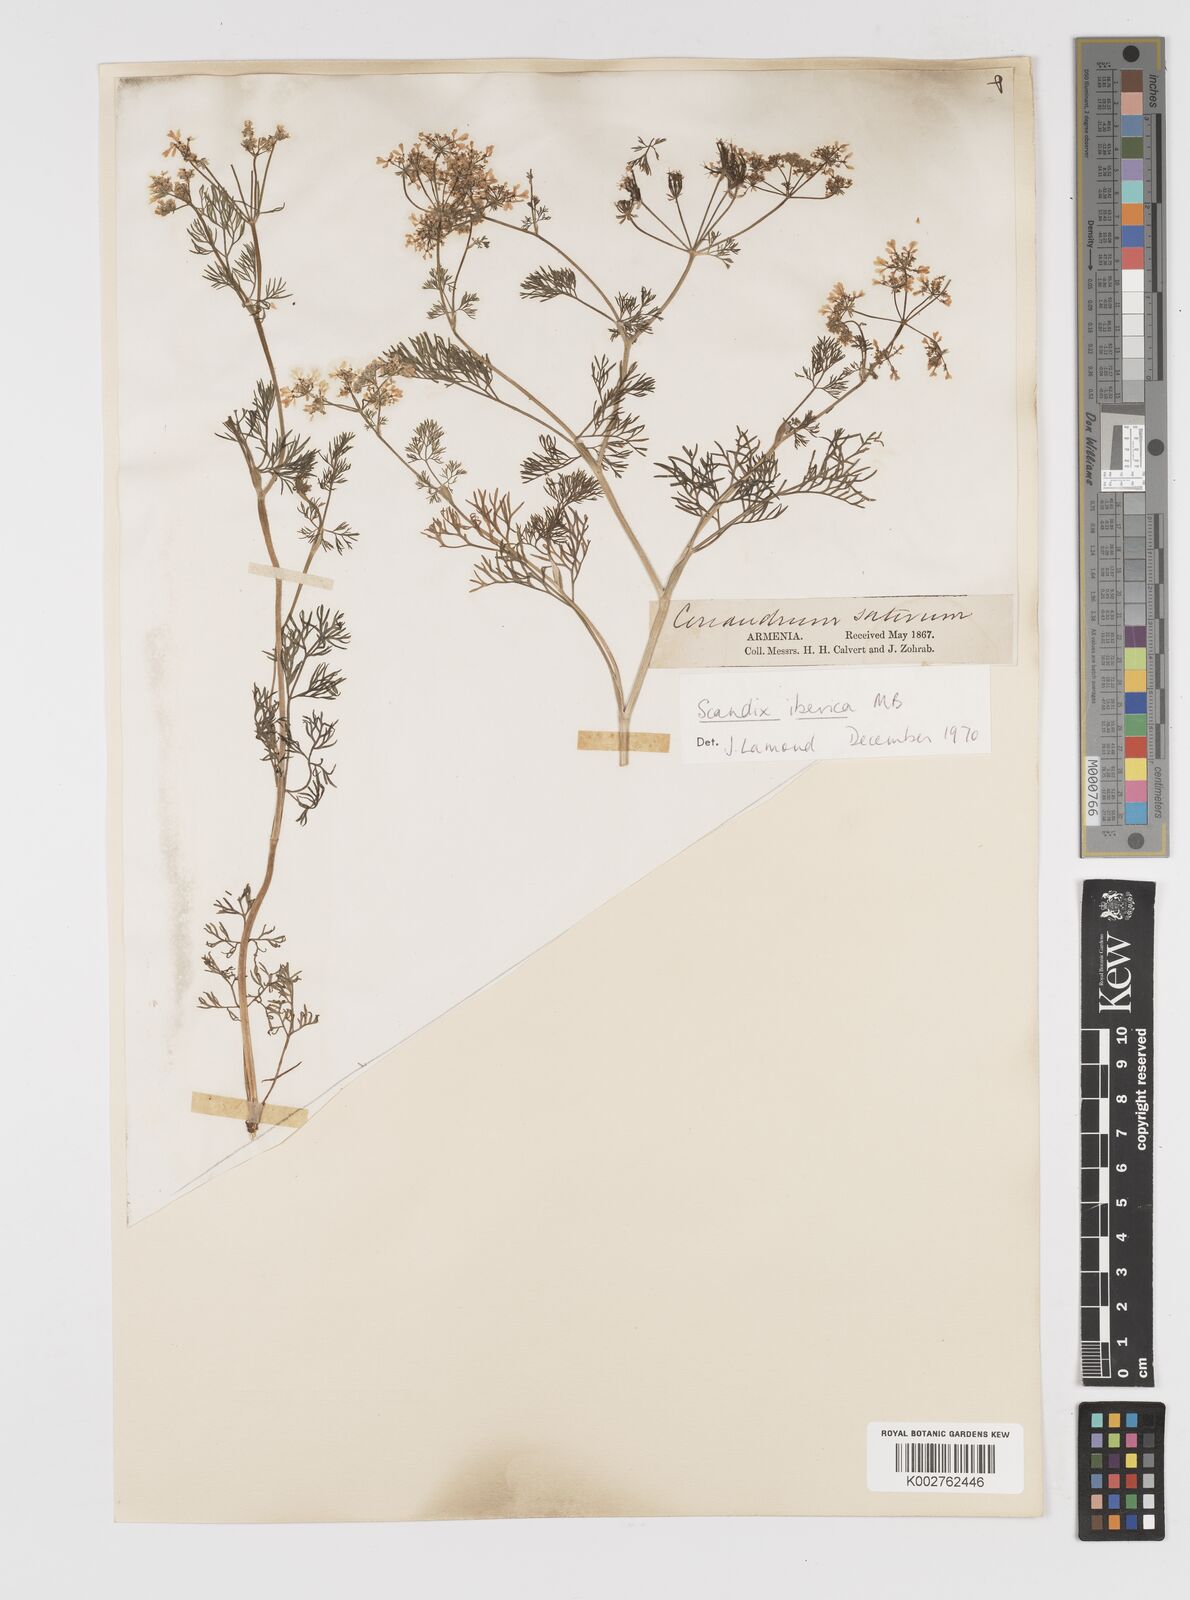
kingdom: Plantae
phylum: Tracheophyta
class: Magnoliopsida
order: Apiales
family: Apiaceae
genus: Scandix
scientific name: Scandix iberica
